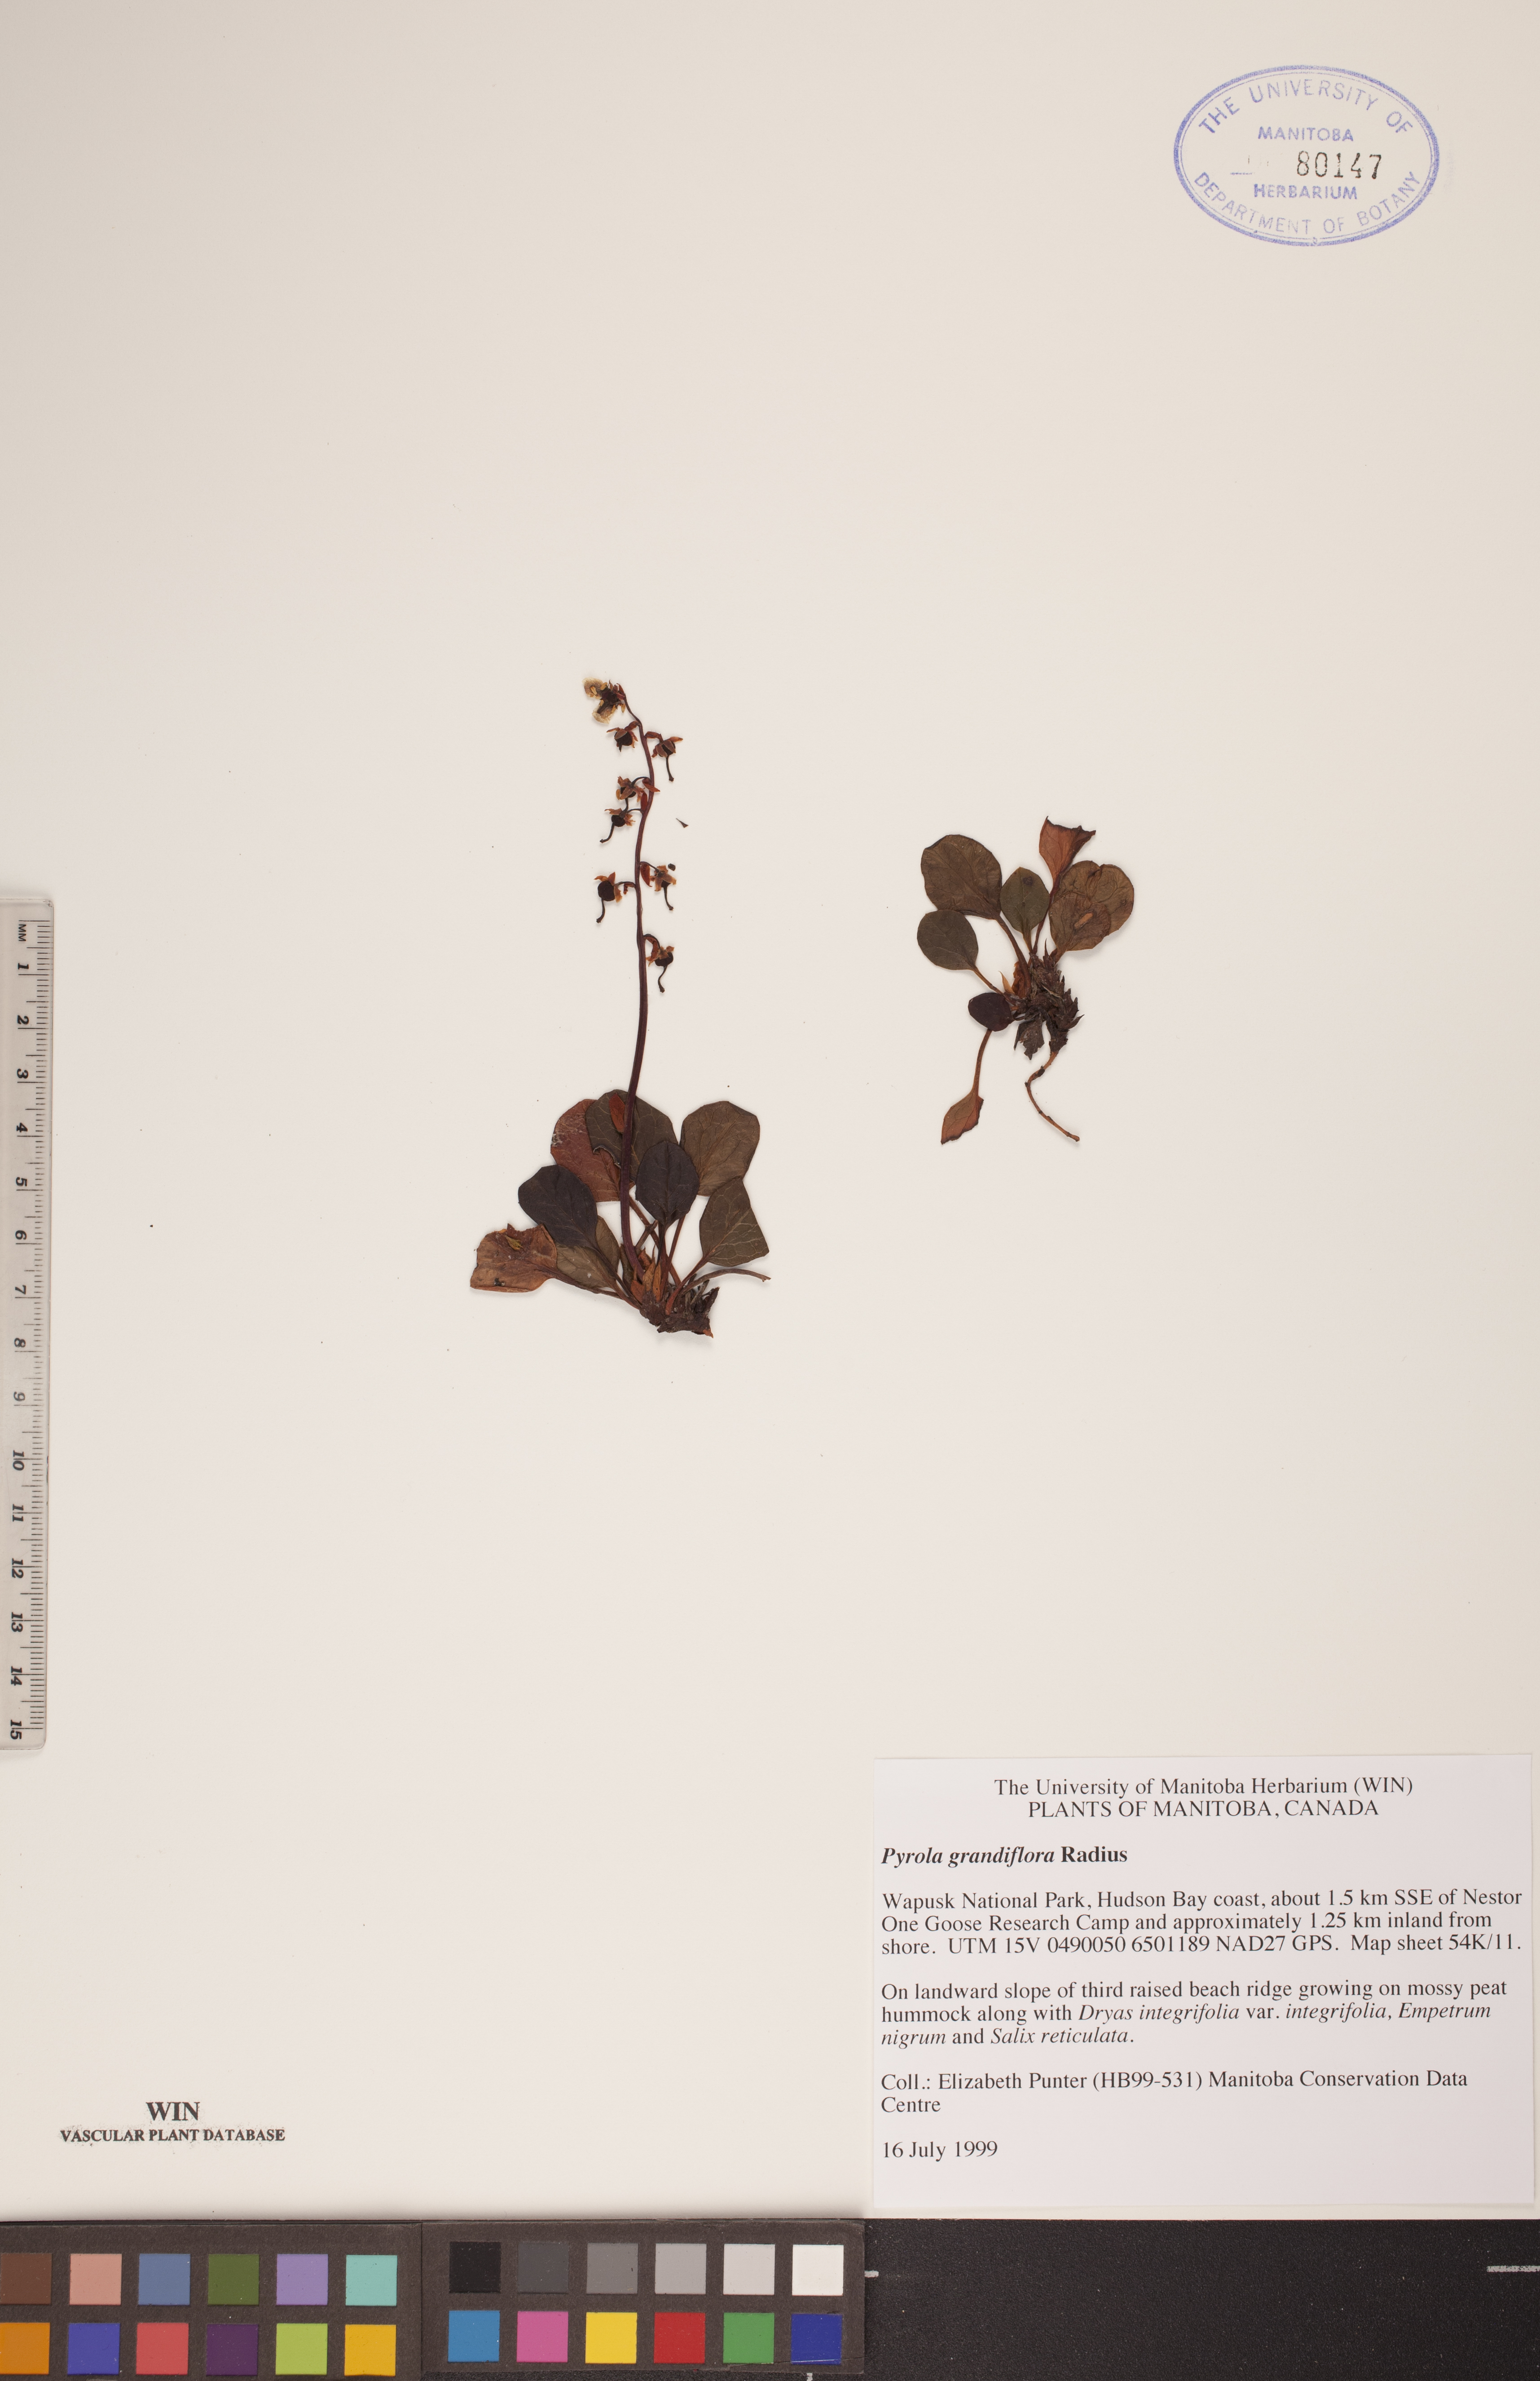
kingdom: Plantae
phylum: Tracheophyta
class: Magnoliopsida
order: Ericales
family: Ericaceae
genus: Pyrola
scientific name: Pyrola grandiflora
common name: Arctic pyrola
